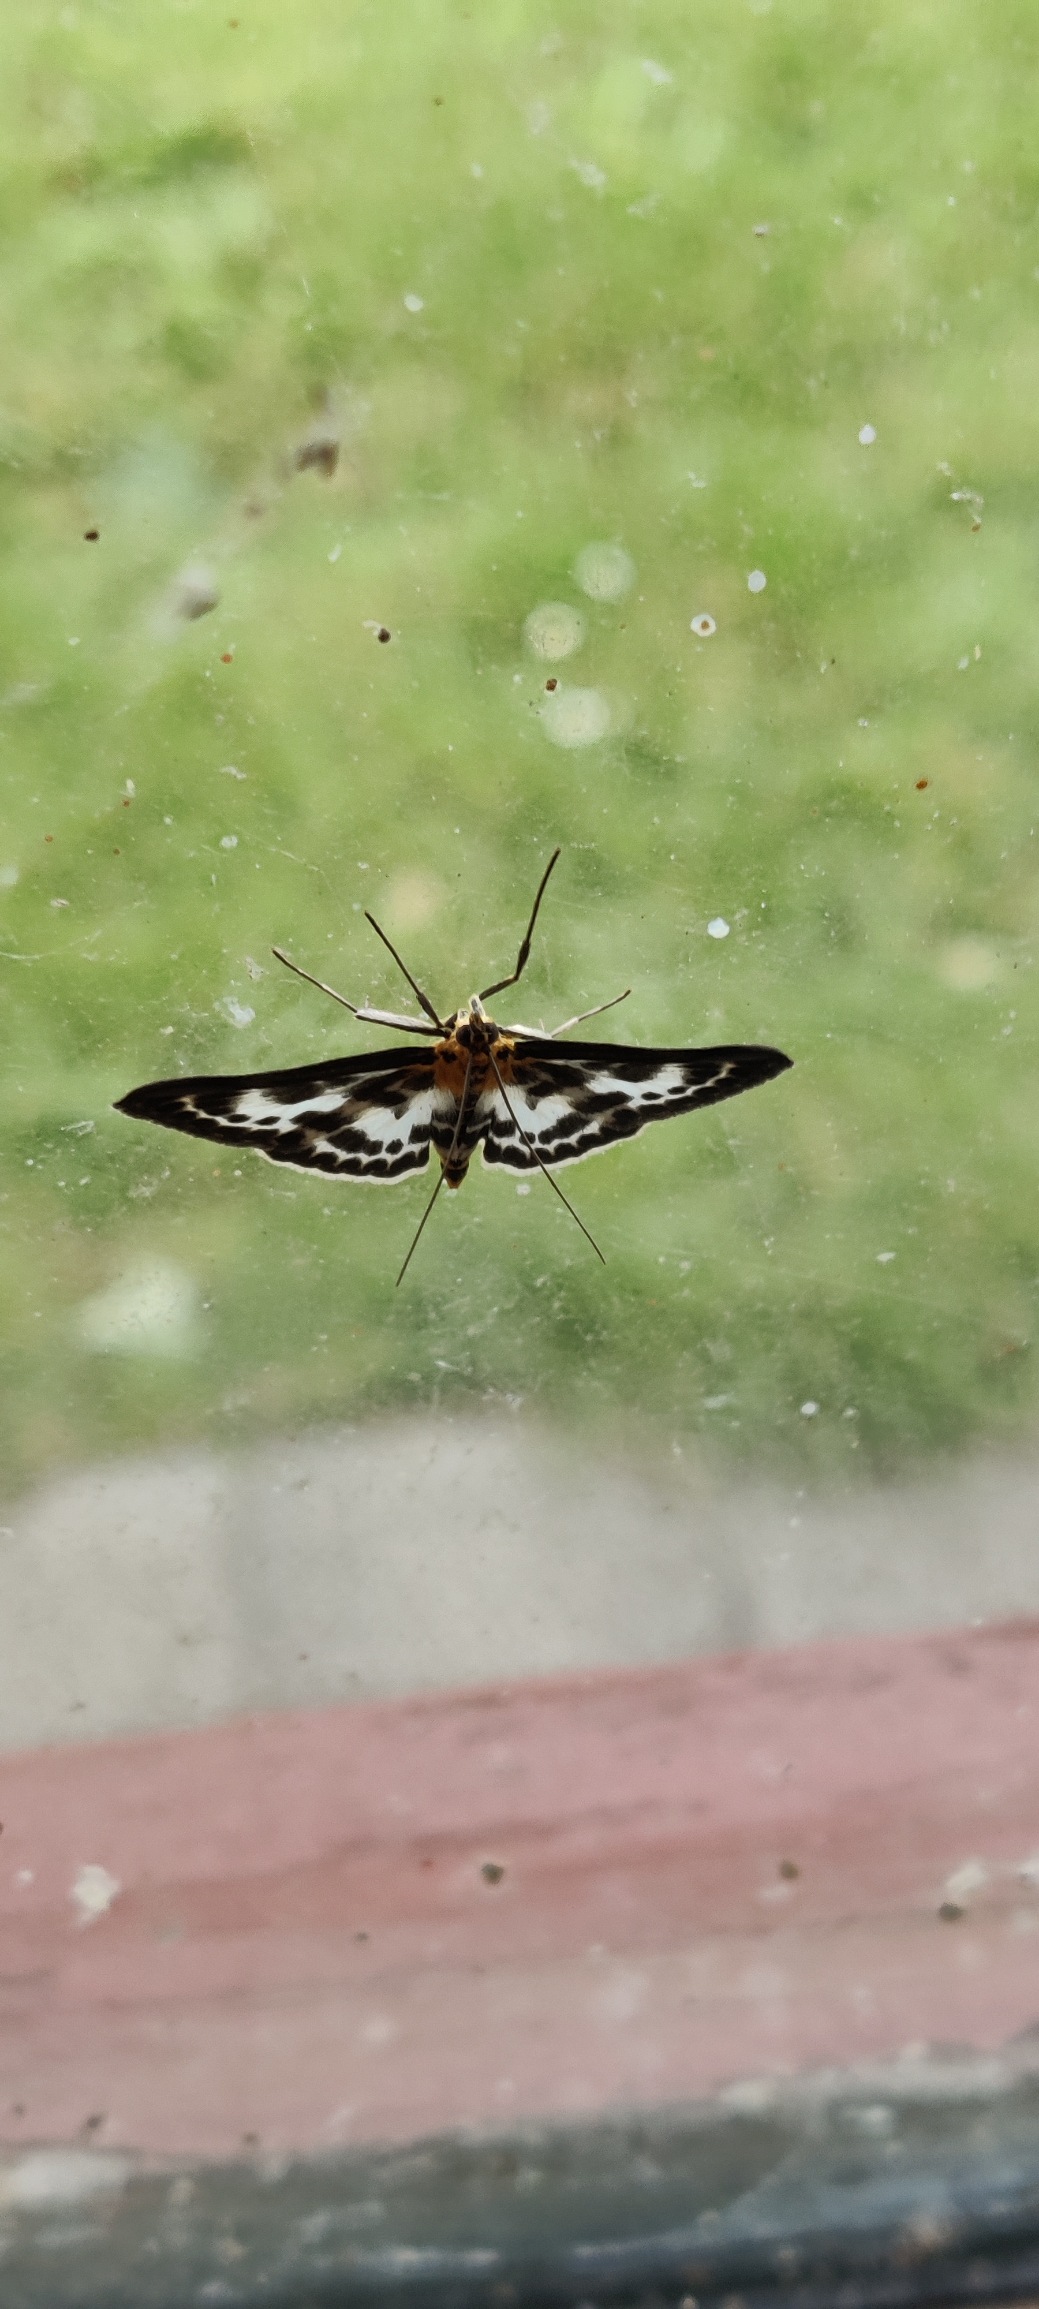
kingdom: Animalia
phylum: Arthropoda
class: Insecta
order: Lepidoptera
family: Crambidae
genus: Anania
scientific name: Anania hortulata
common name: Nældehalvmøl
